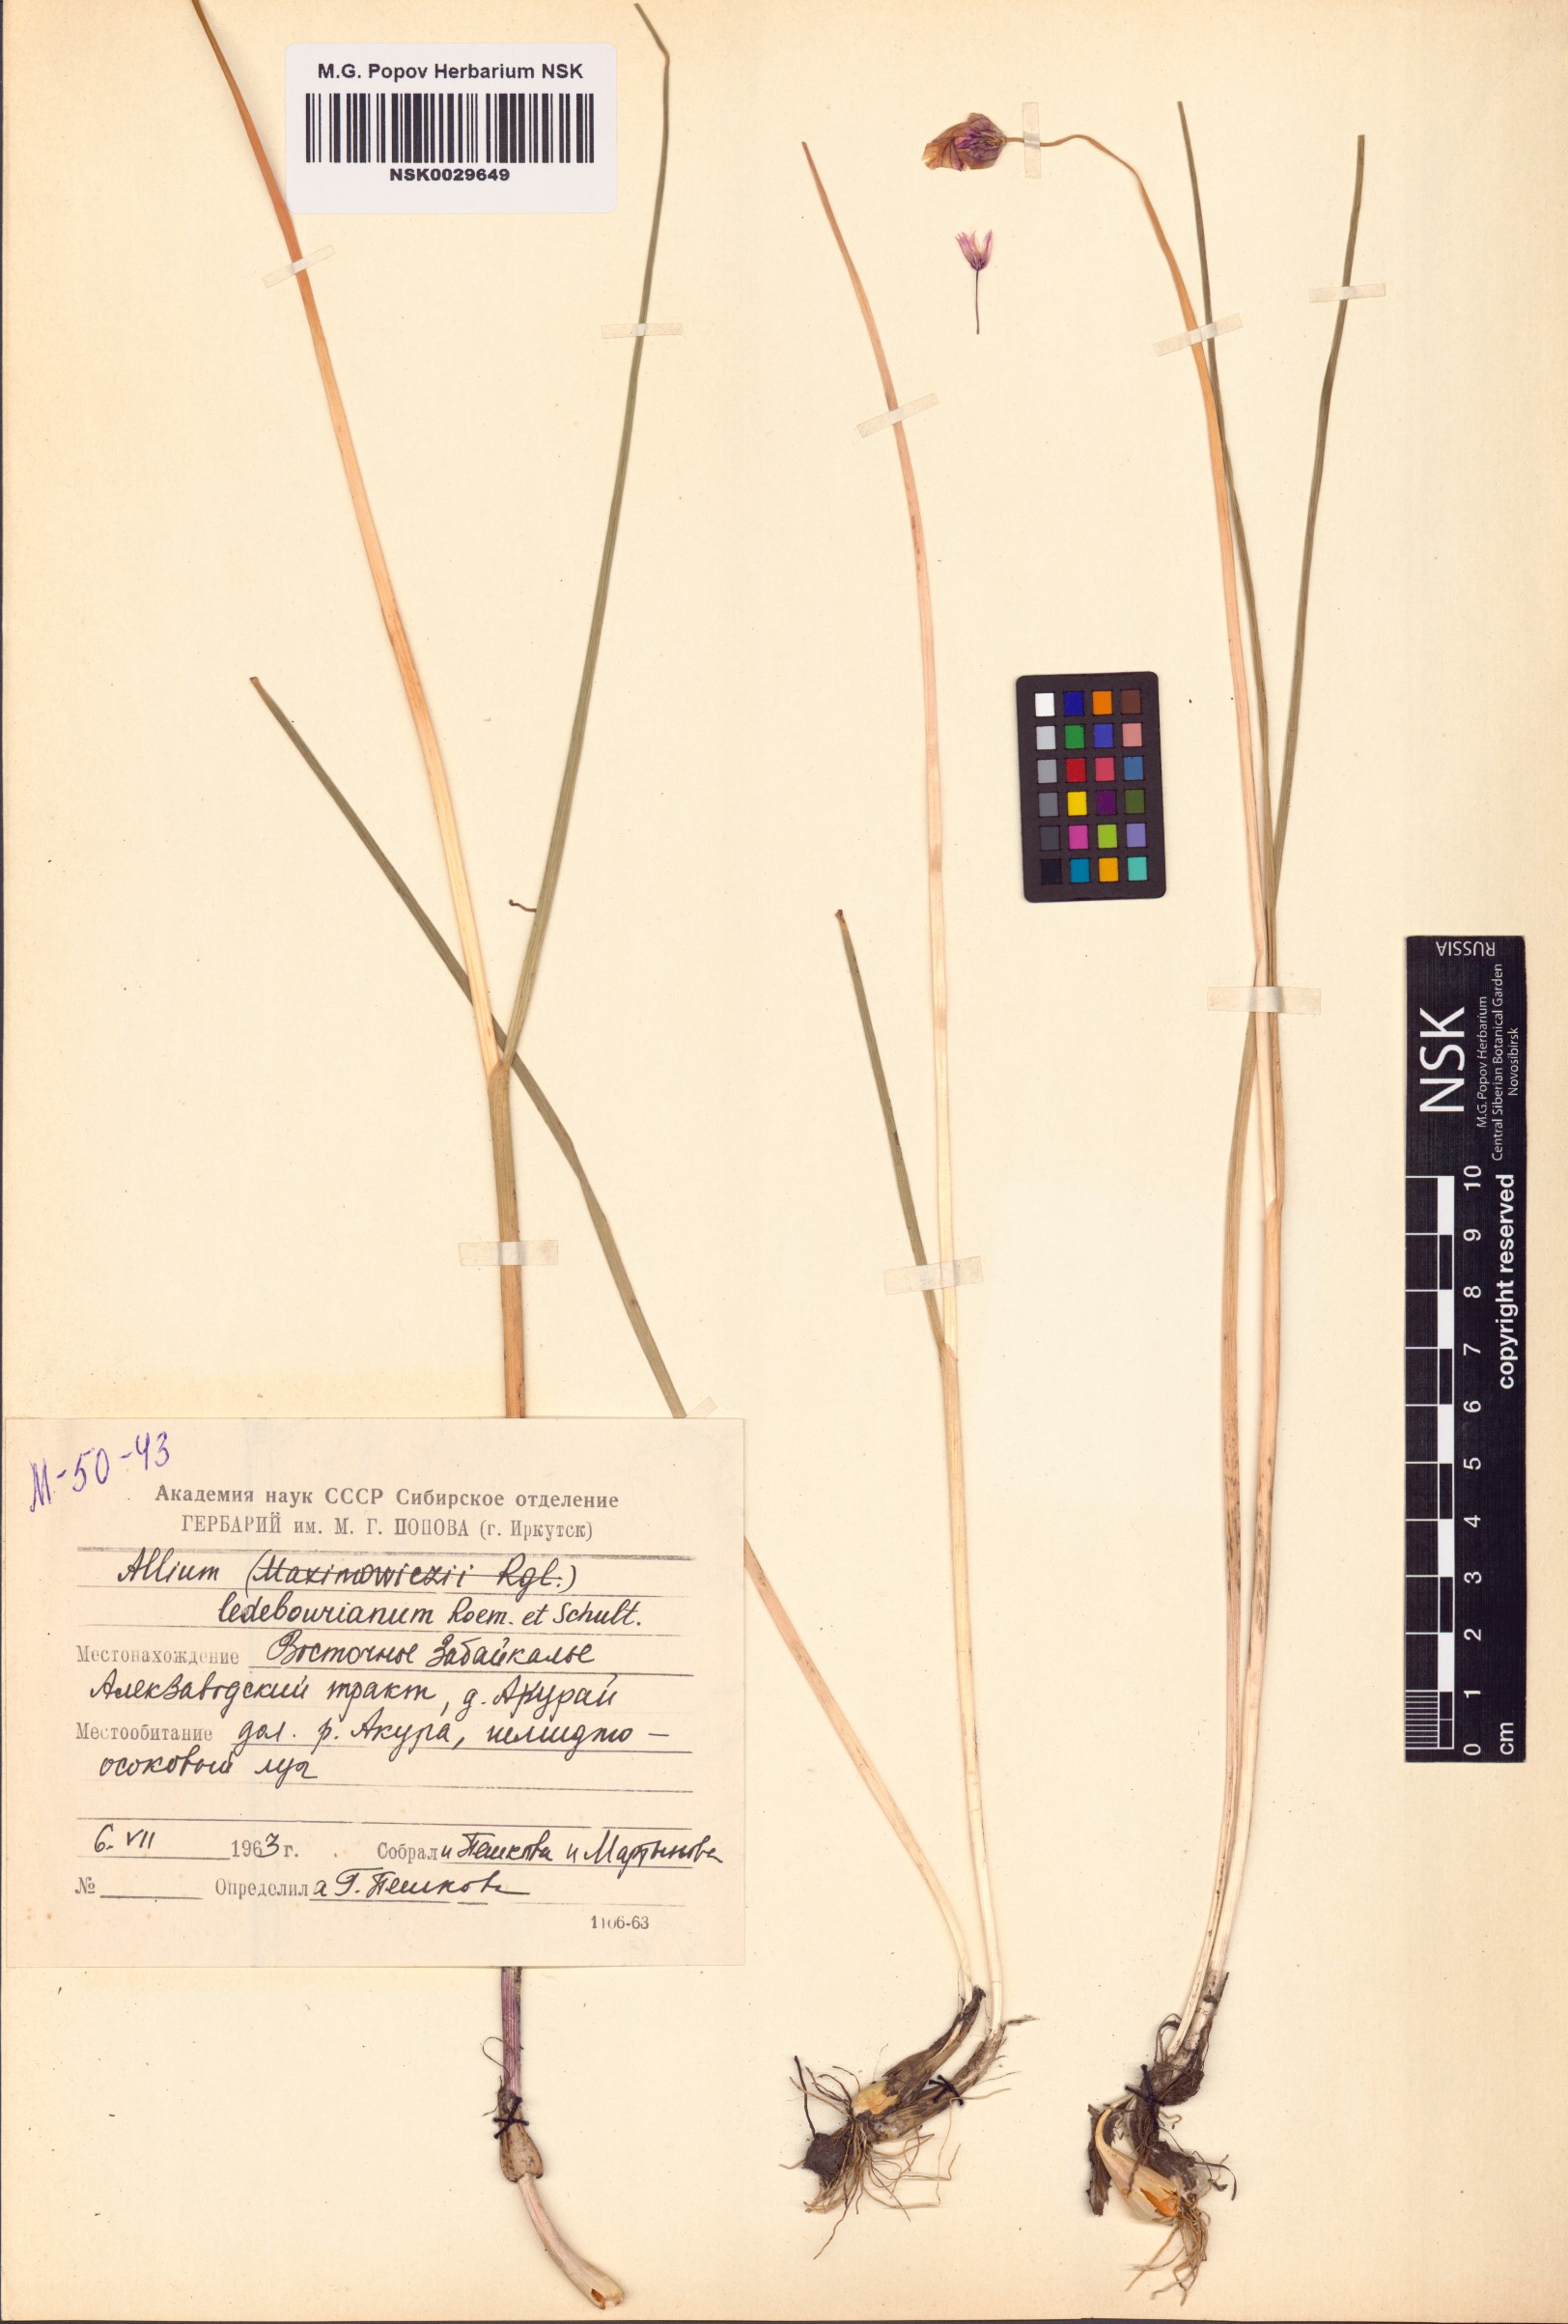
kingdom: Plantae
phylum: Tracheophyta
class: Liliopsida
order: Asparagales
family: Amaryllidaceae
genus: Allium
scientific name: Allium ledebourianum
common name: Ledebour chive
